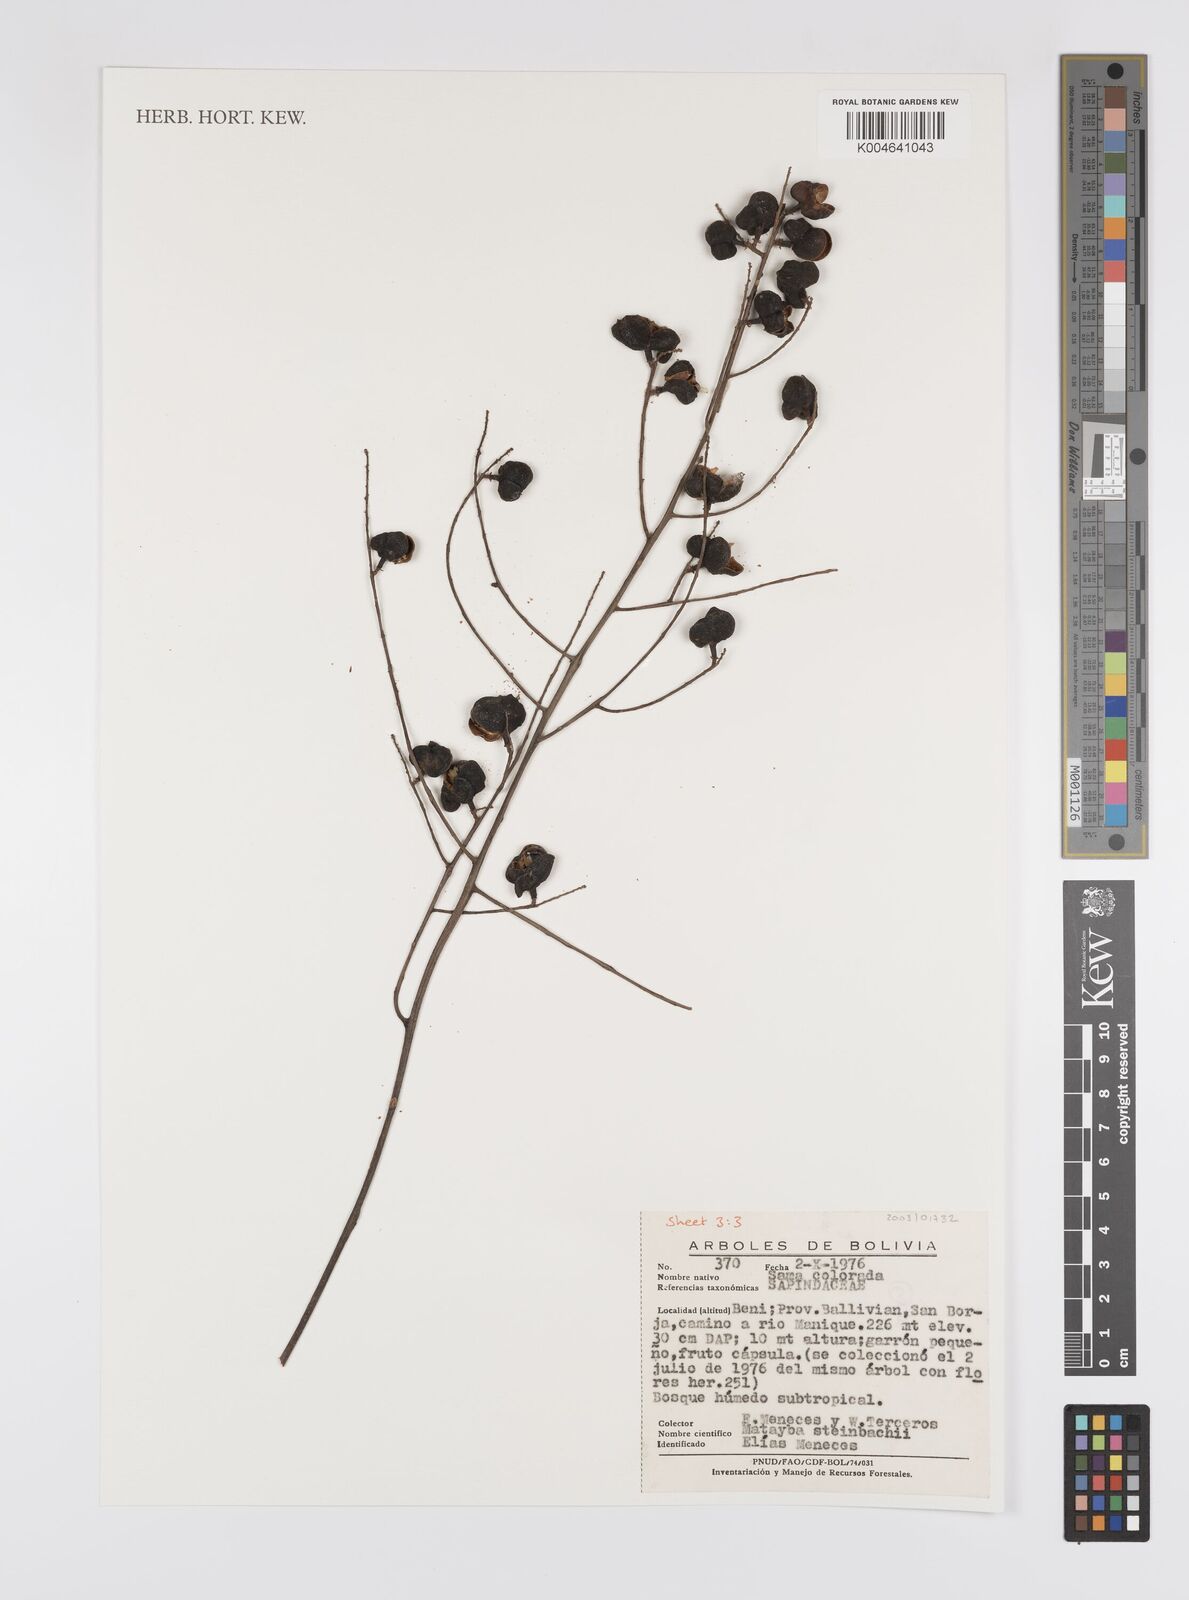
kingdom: Plantae
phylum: Tracheophyta
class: Magnoliopsida
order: Sapindales
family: Sapindaceae
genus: Matayba
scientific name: Matayba guianensis
